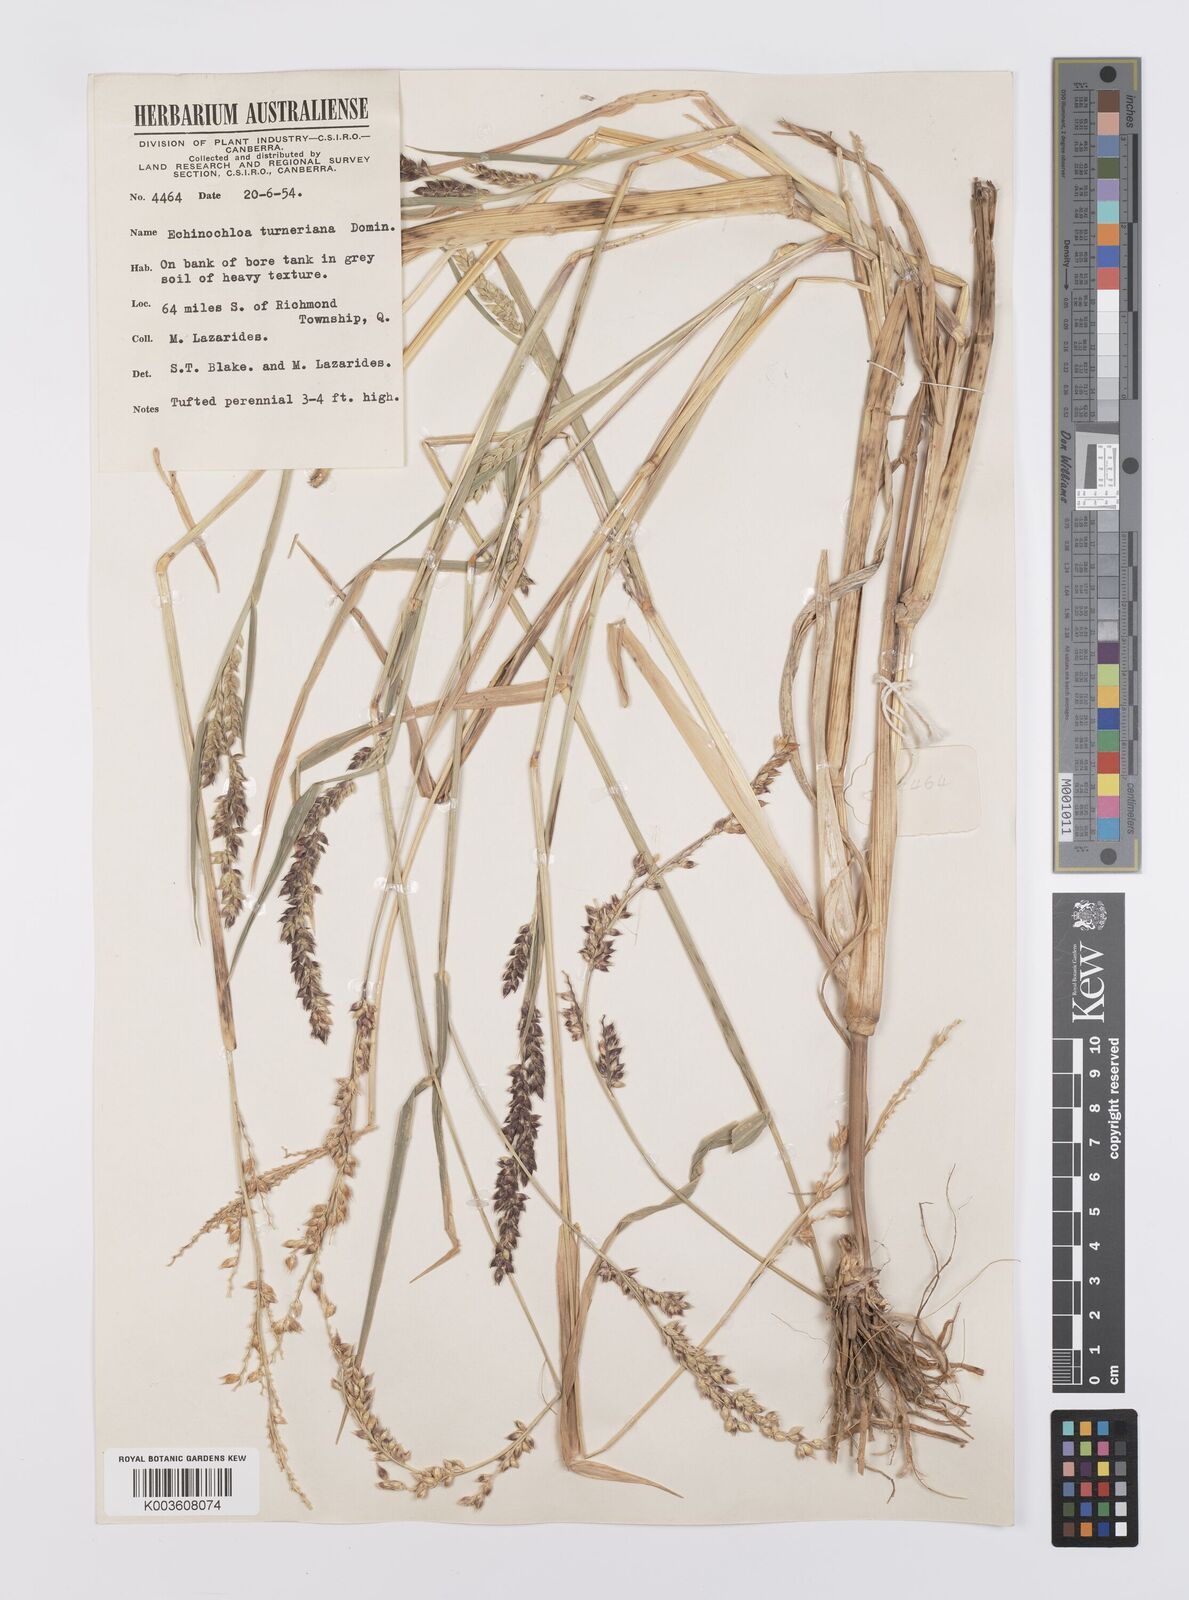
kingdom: Plantae
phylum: Tracheophyta
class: Liliopsida
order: Poales
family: Poaceae
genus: Echinochloa
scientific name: Echinochloa turneriana
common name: Channel millet
